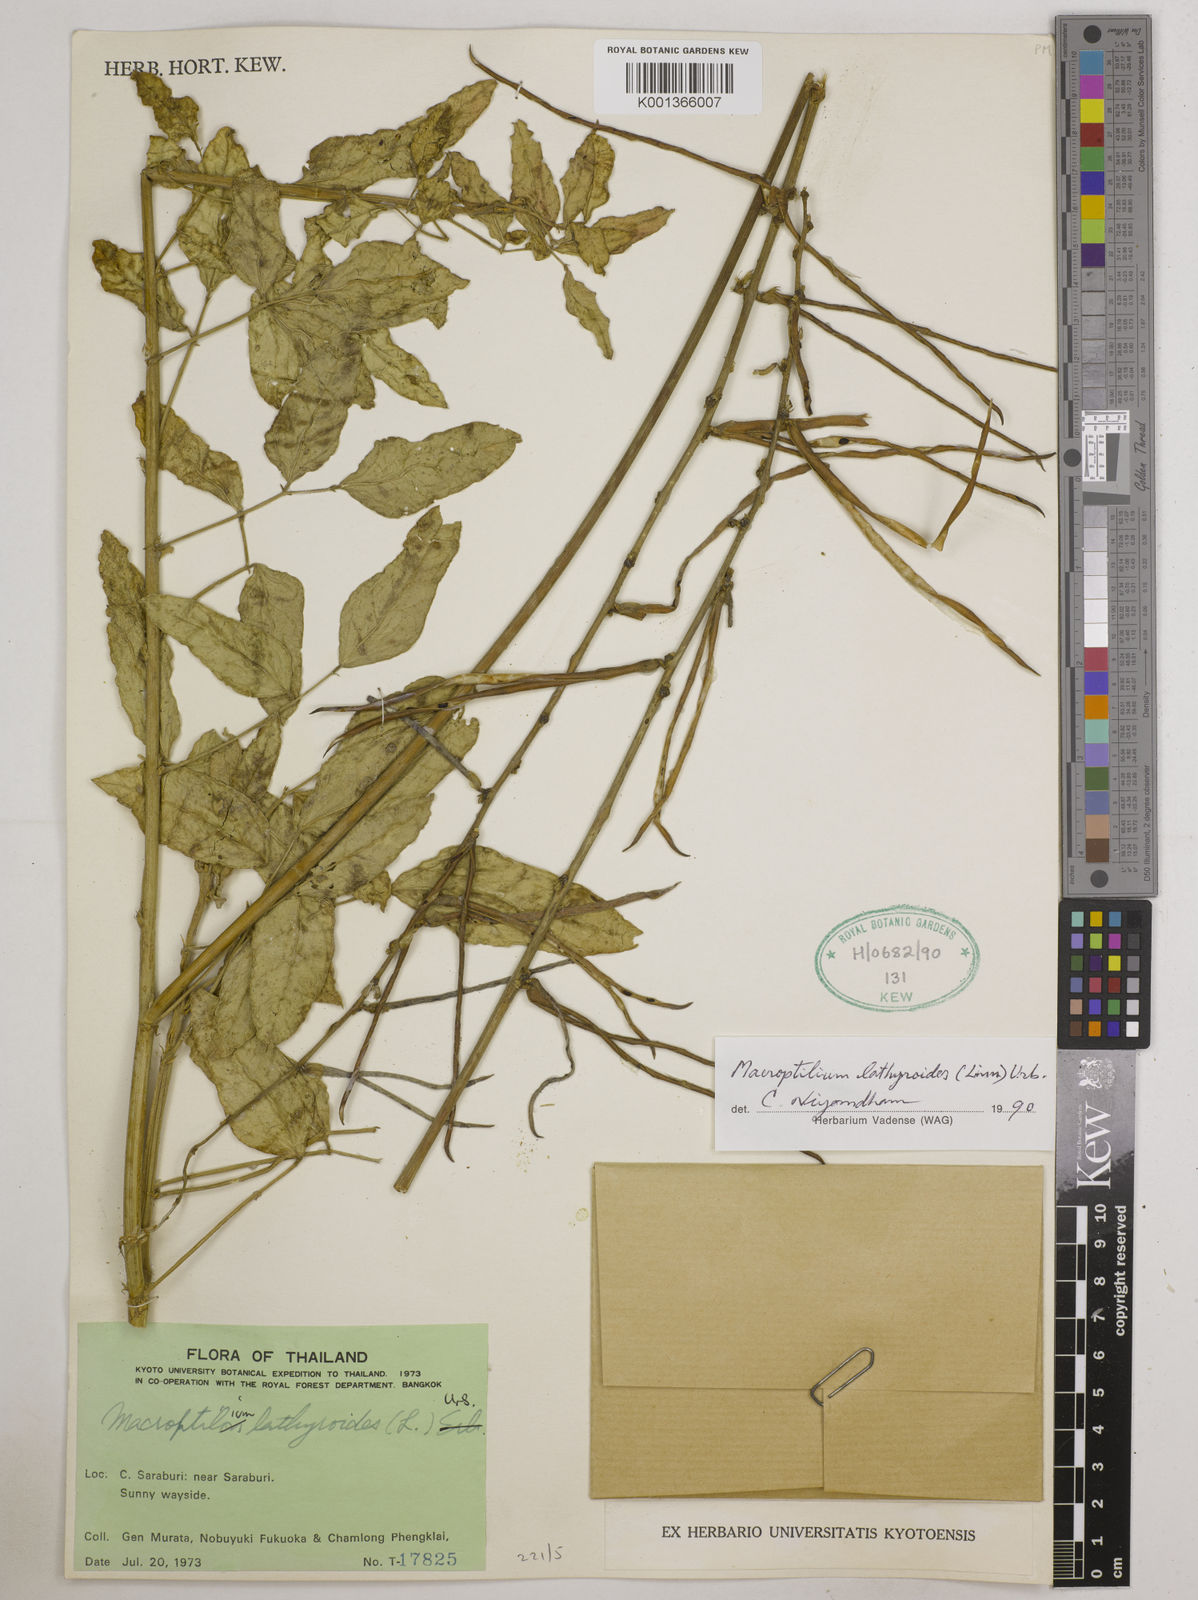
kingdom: Plantae
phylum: Tracheophyta
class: Magnoliopsida
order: Fabales
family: Fabaceae
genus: Macroptilium
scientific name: Macroptilium lathyroides
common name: Wild bushbean
